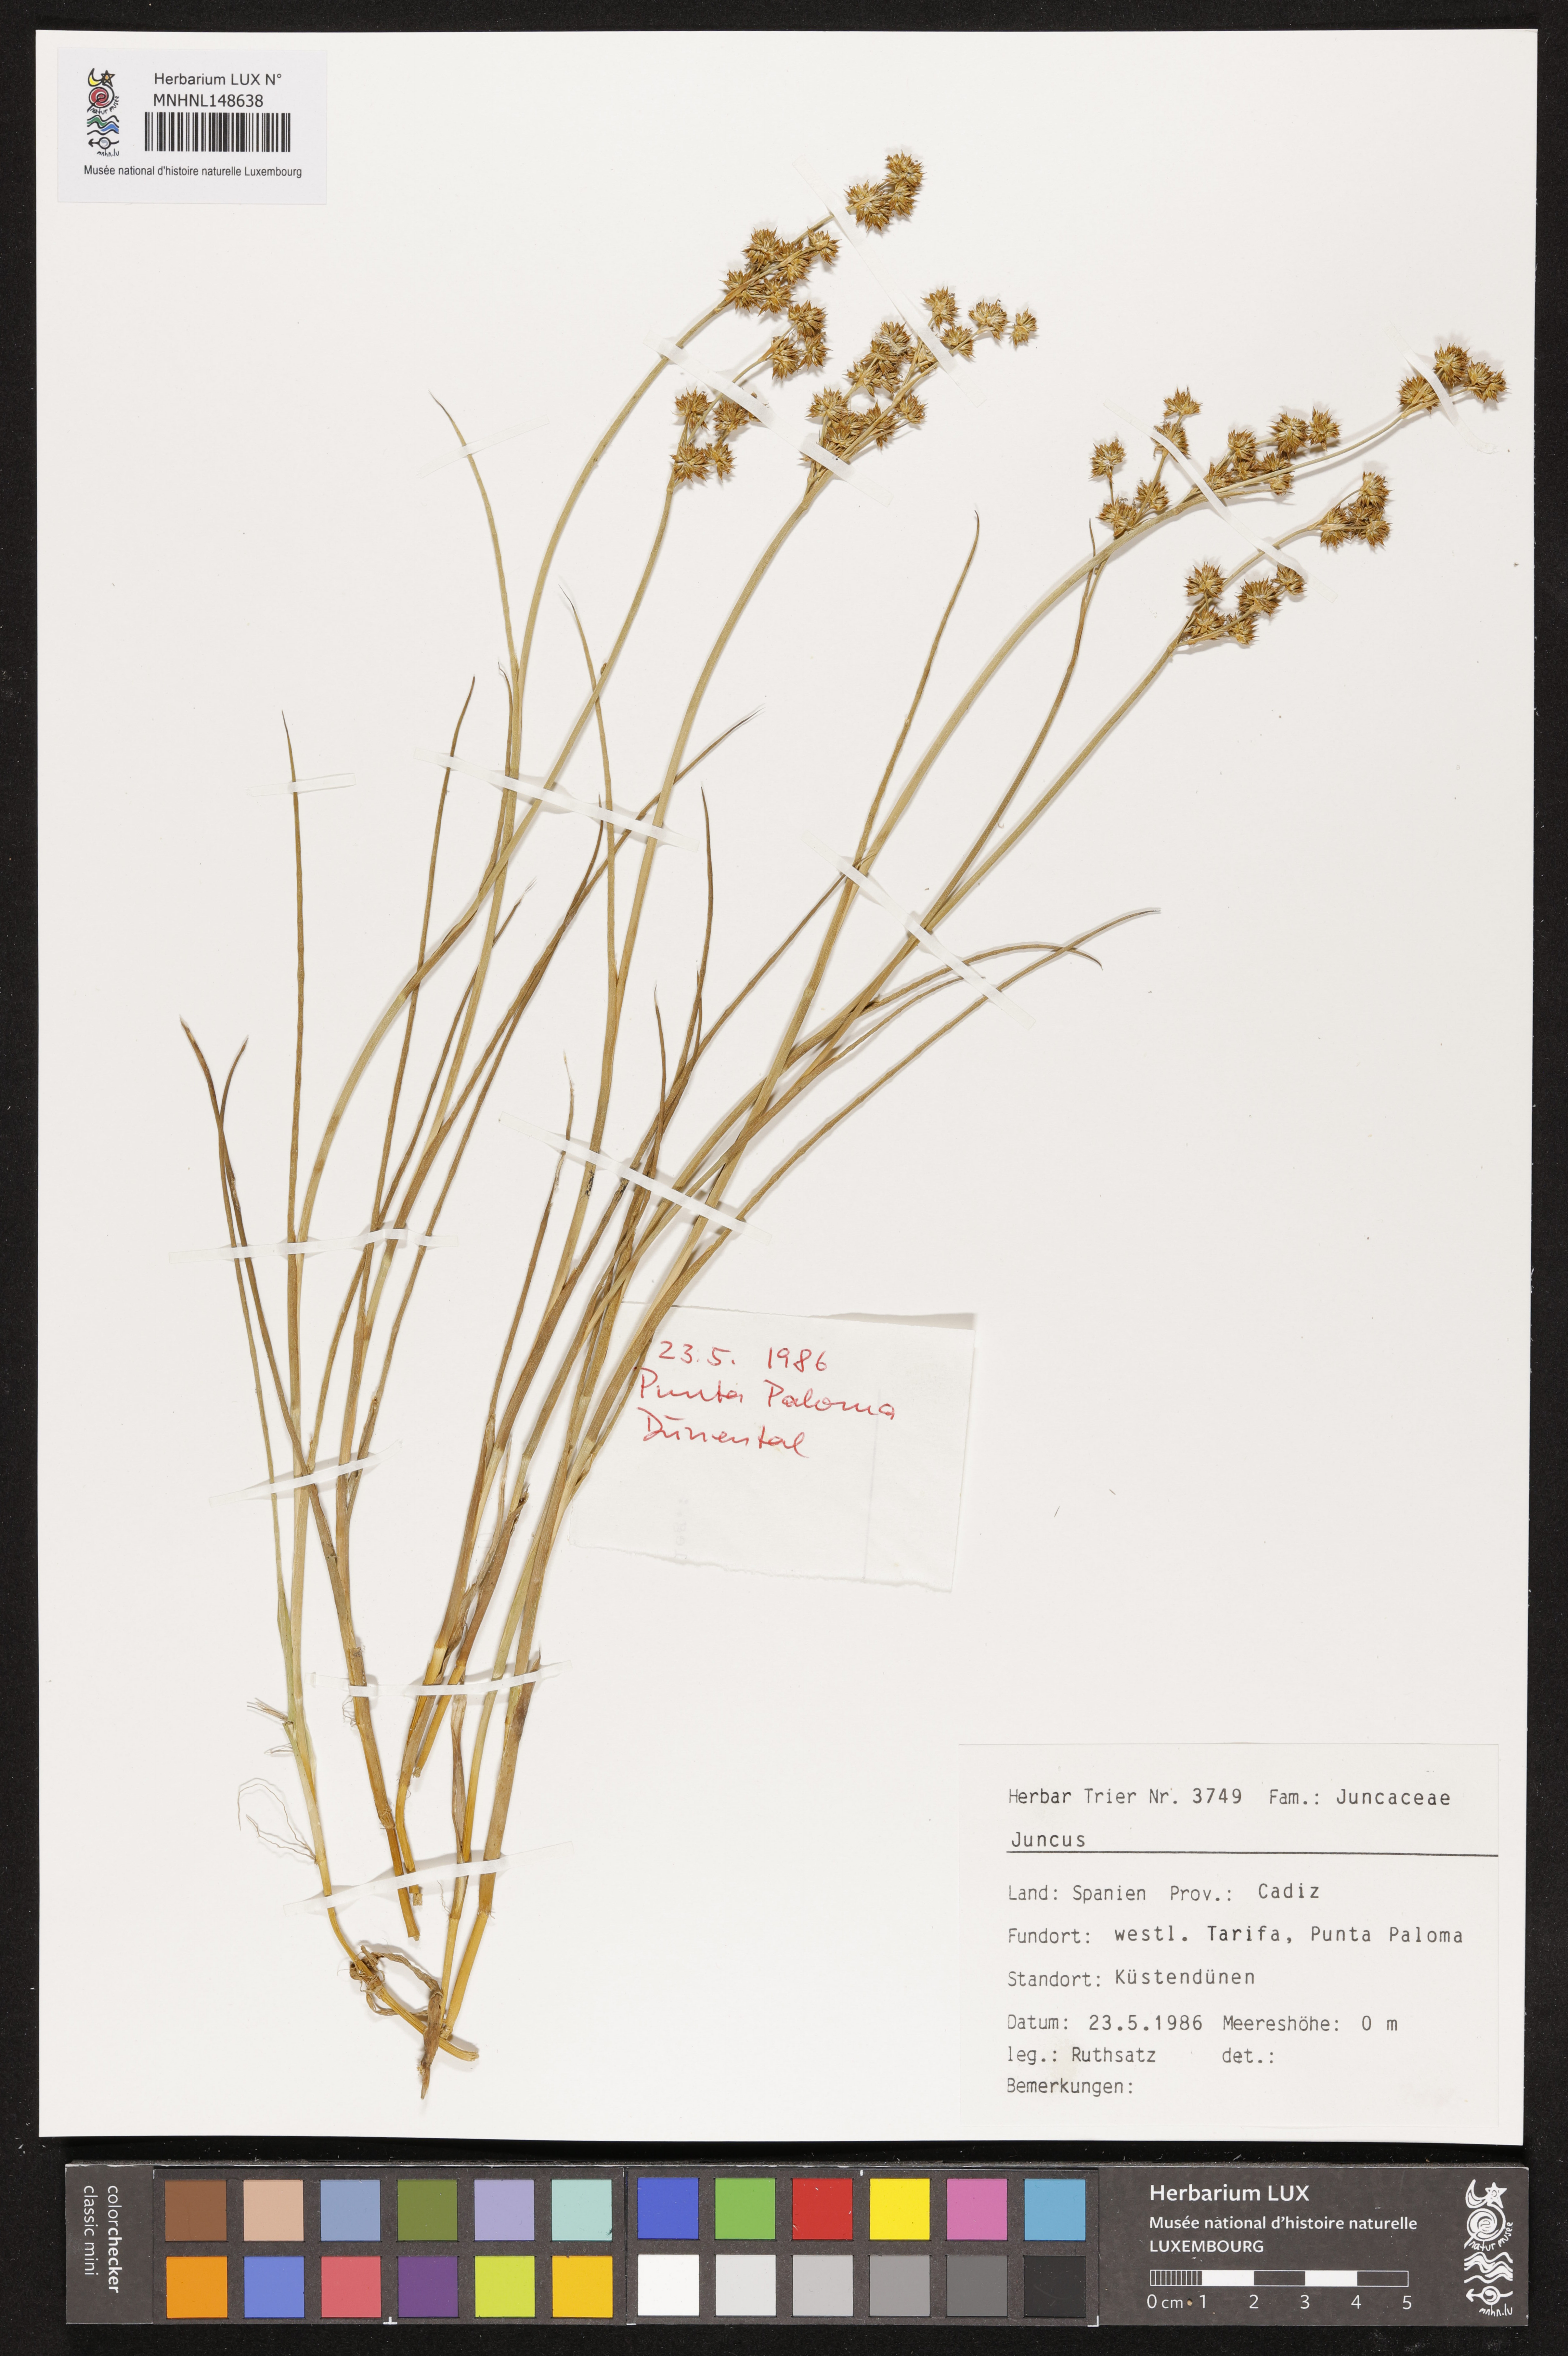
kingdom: Plantae
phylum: Tracheophyta
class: Liliopsida
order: Poales
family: Juncaceae
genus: Juncus
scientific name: Juncus
